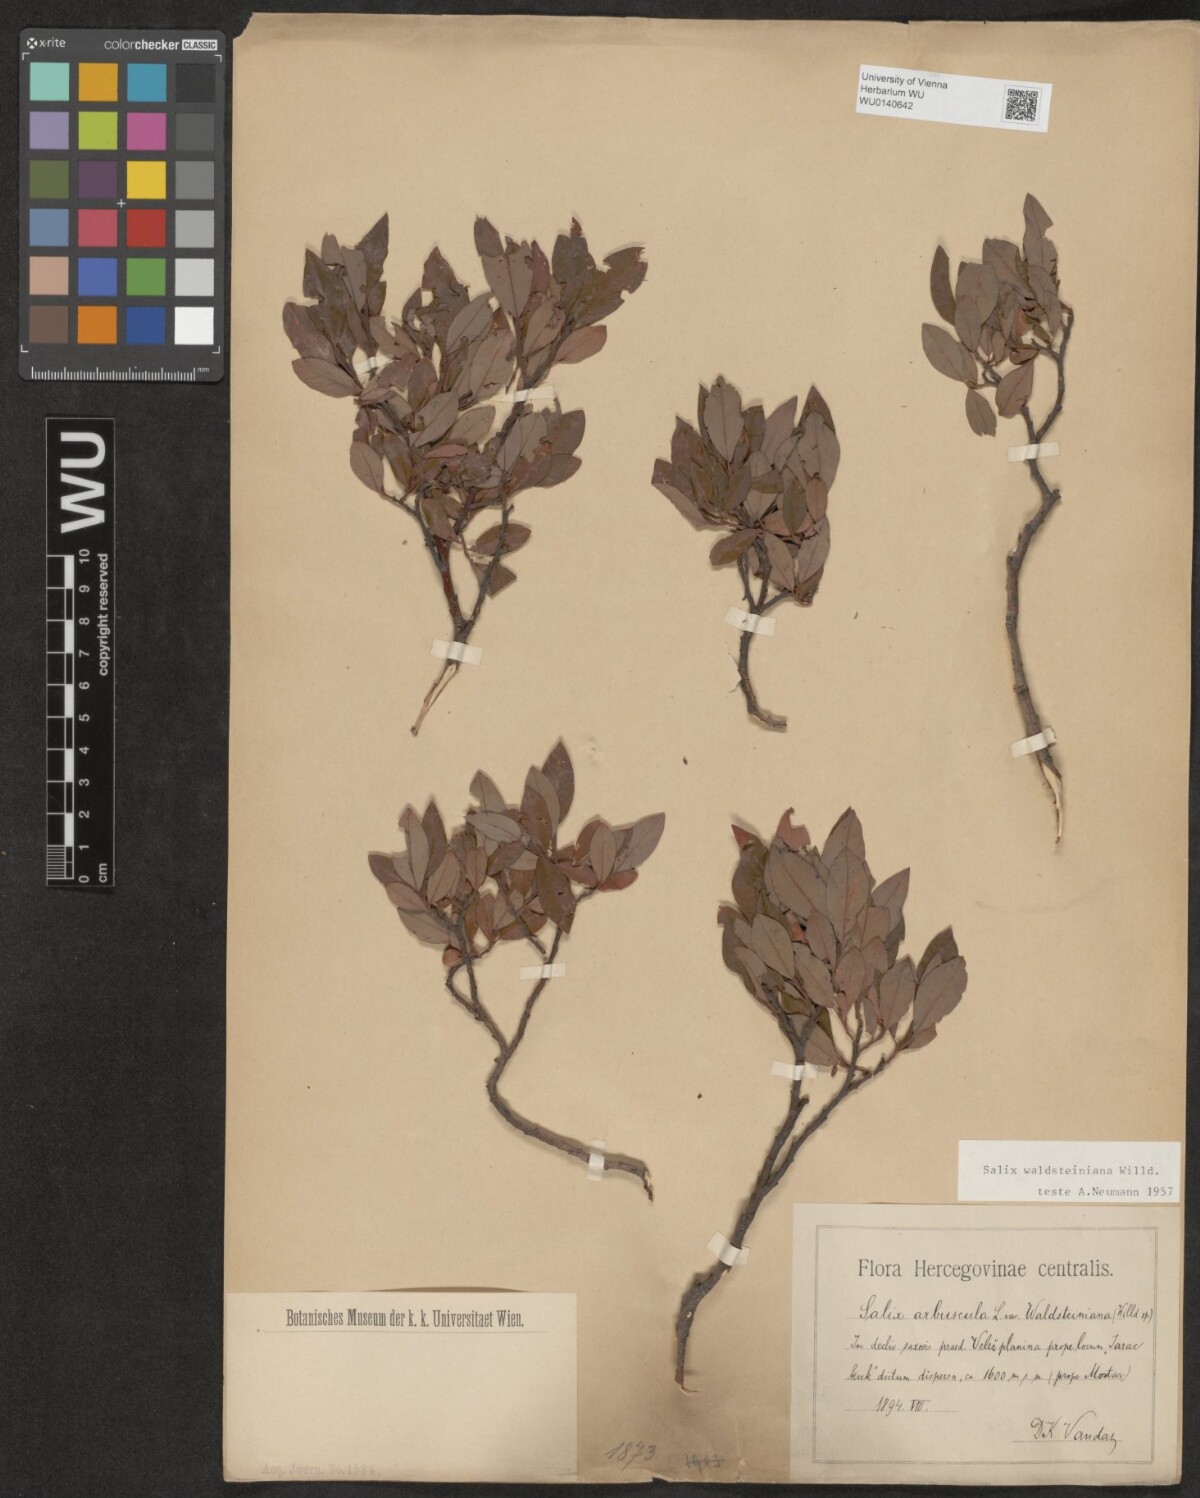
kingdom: Plantae
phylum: Tracheophyta
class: Magnoliopsida
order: Malpighiales
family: Salicaceae
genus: Salix
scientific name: Salix waldsteiniana
